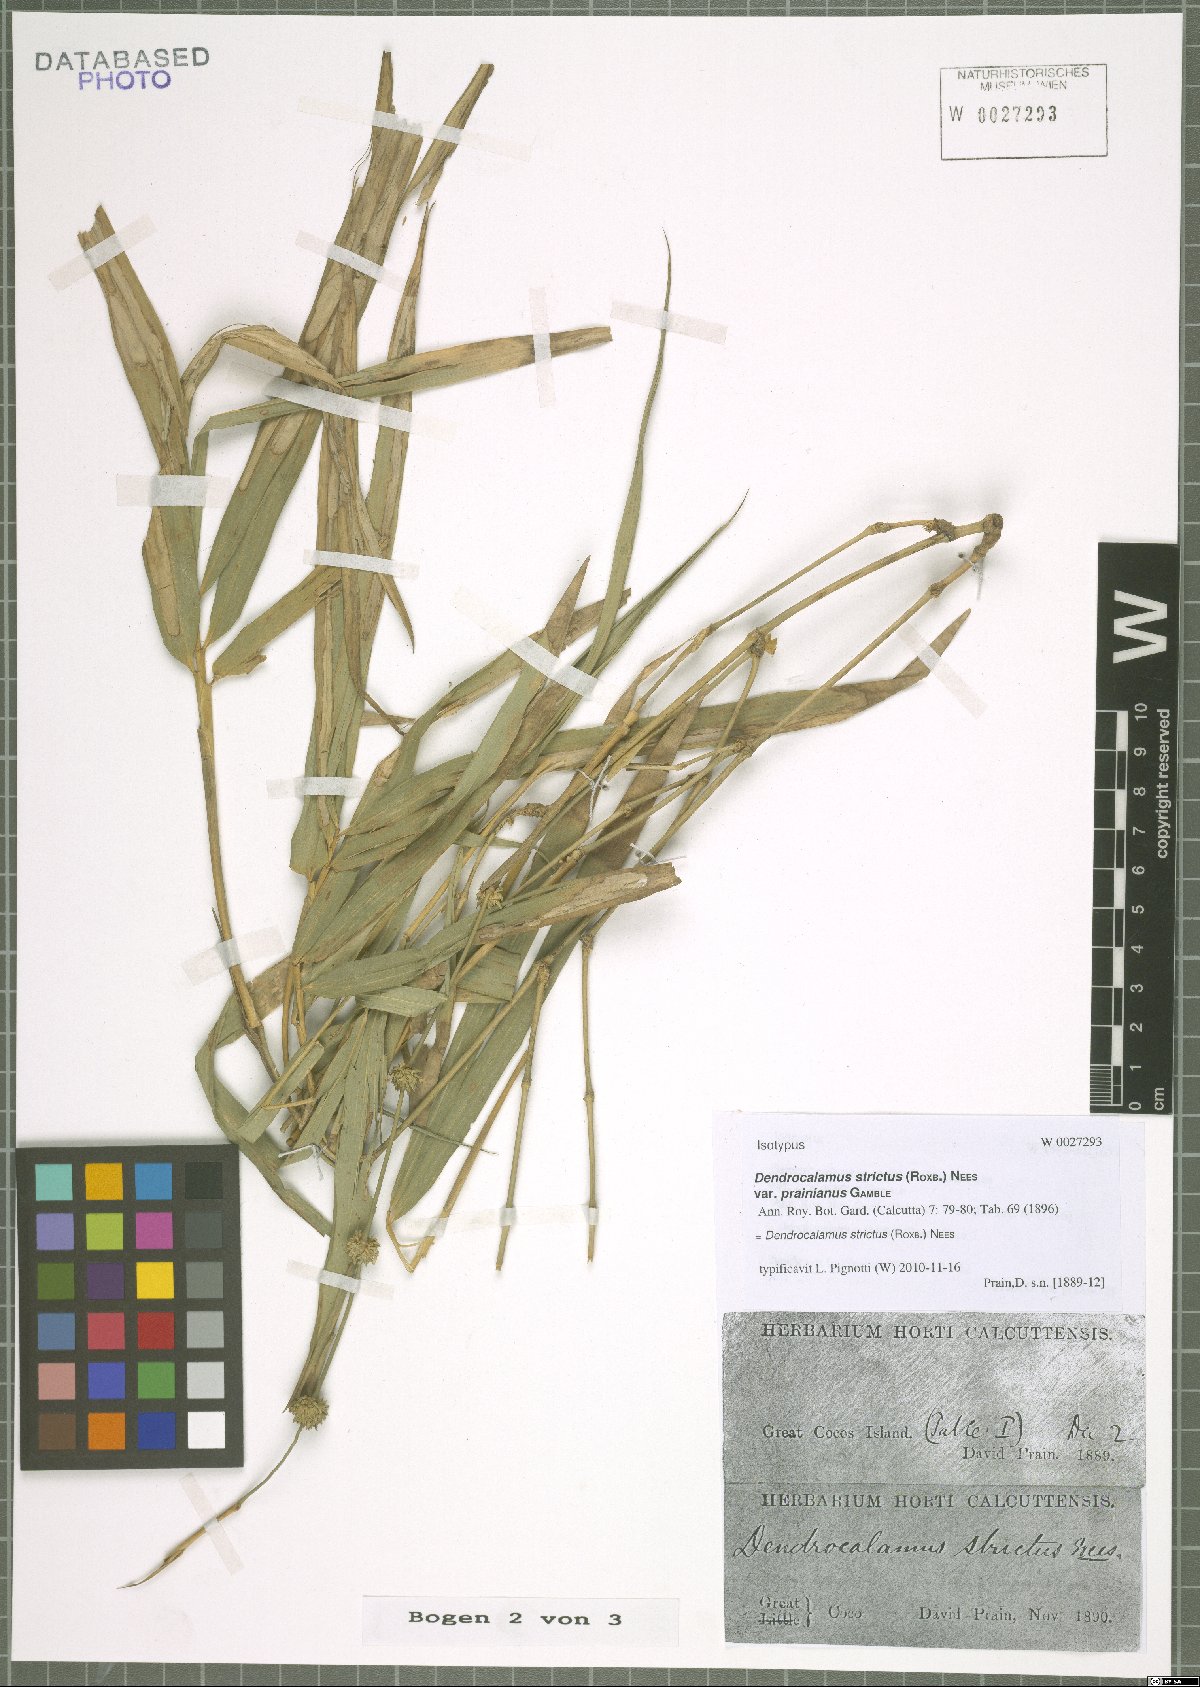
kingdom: Plantae
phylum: Tracheophyta
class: Liliopsida
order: Poales
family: Poaceae
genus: Dendrocalamus
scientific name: Dendrocalamus strictus
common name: Male bamboo
